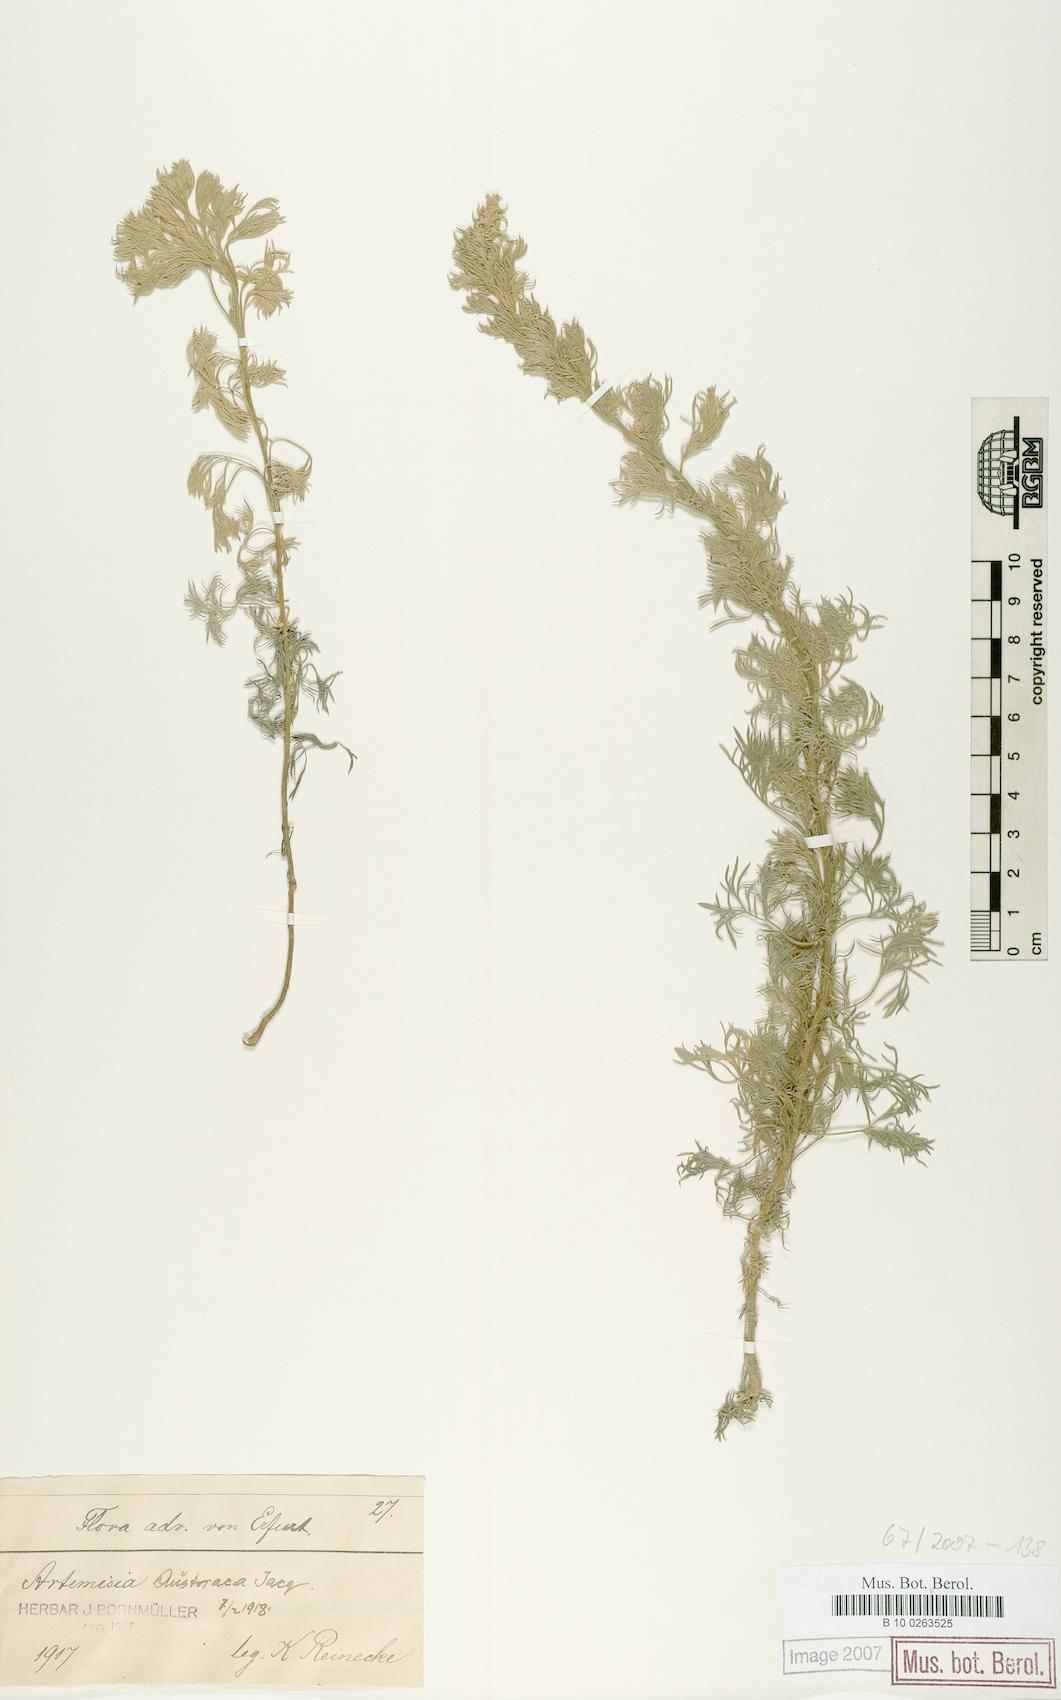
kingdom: Plantae
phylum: Tracheophyta
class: Magnoliopsida
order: Asterales
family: Asteraceae
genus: Artemisia
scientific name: Artemisia austriaca
